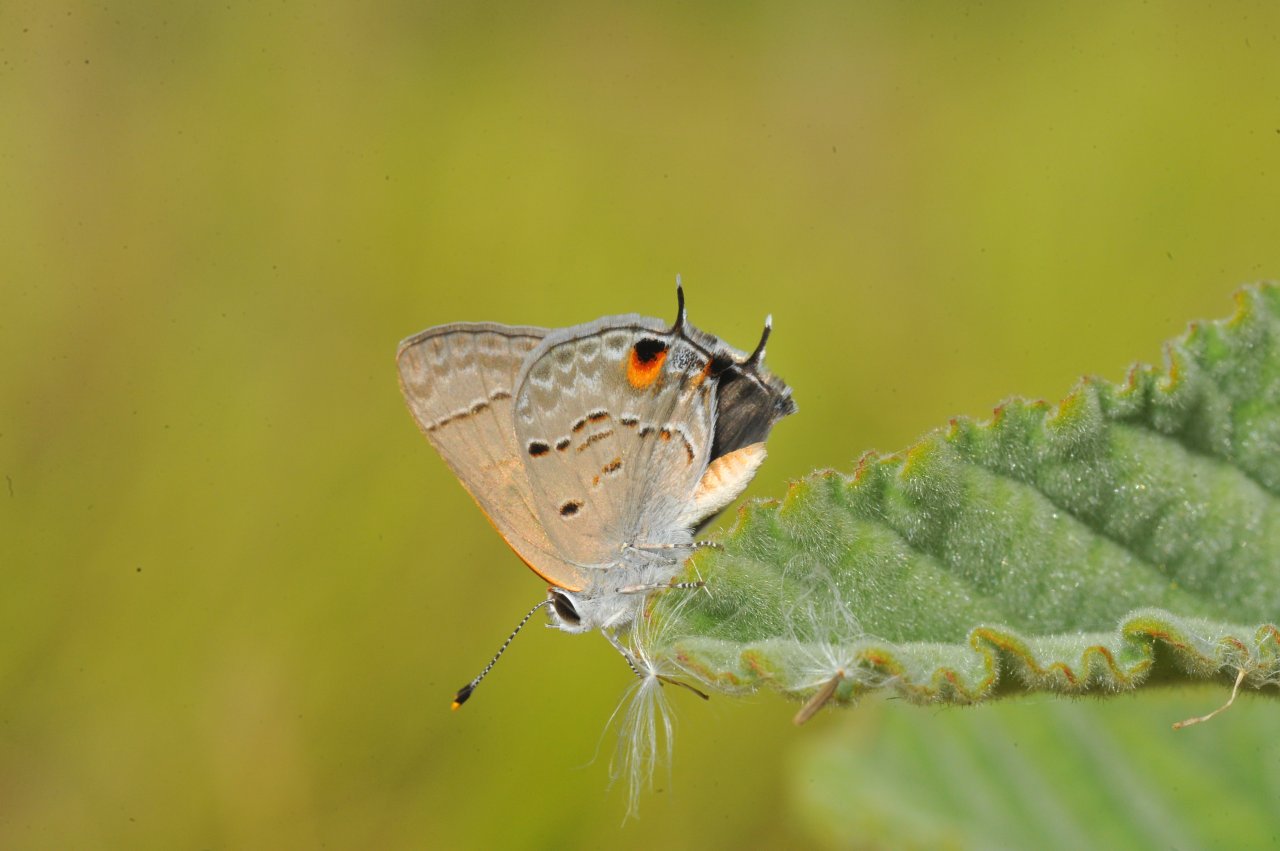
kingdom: Animalia
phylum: Arthropoda
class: Insecta
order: Lepidoptera
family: Lycaenidae
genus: Callicista
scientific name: Callicista columella
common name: Mallow Scrub-Hairstreak
